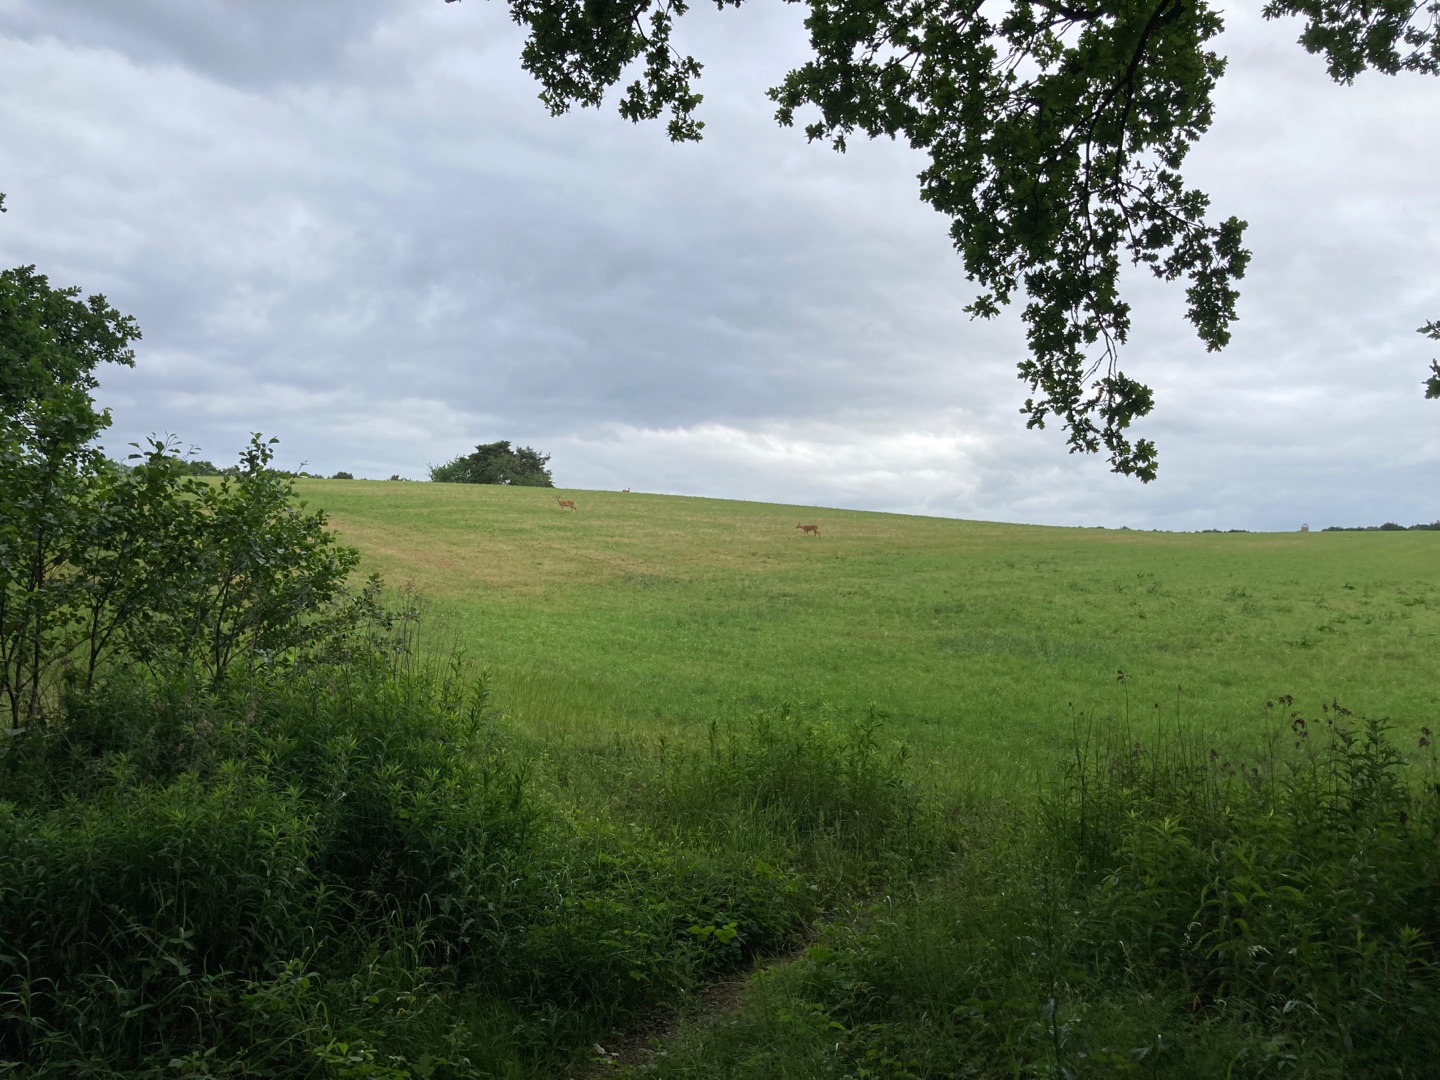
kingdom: Animalia
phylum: Chordata
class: Mammalia
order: Artiodactyla
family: Cervidae
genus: Capreolus
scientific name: Capreolus capreolus
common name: Rådyr
